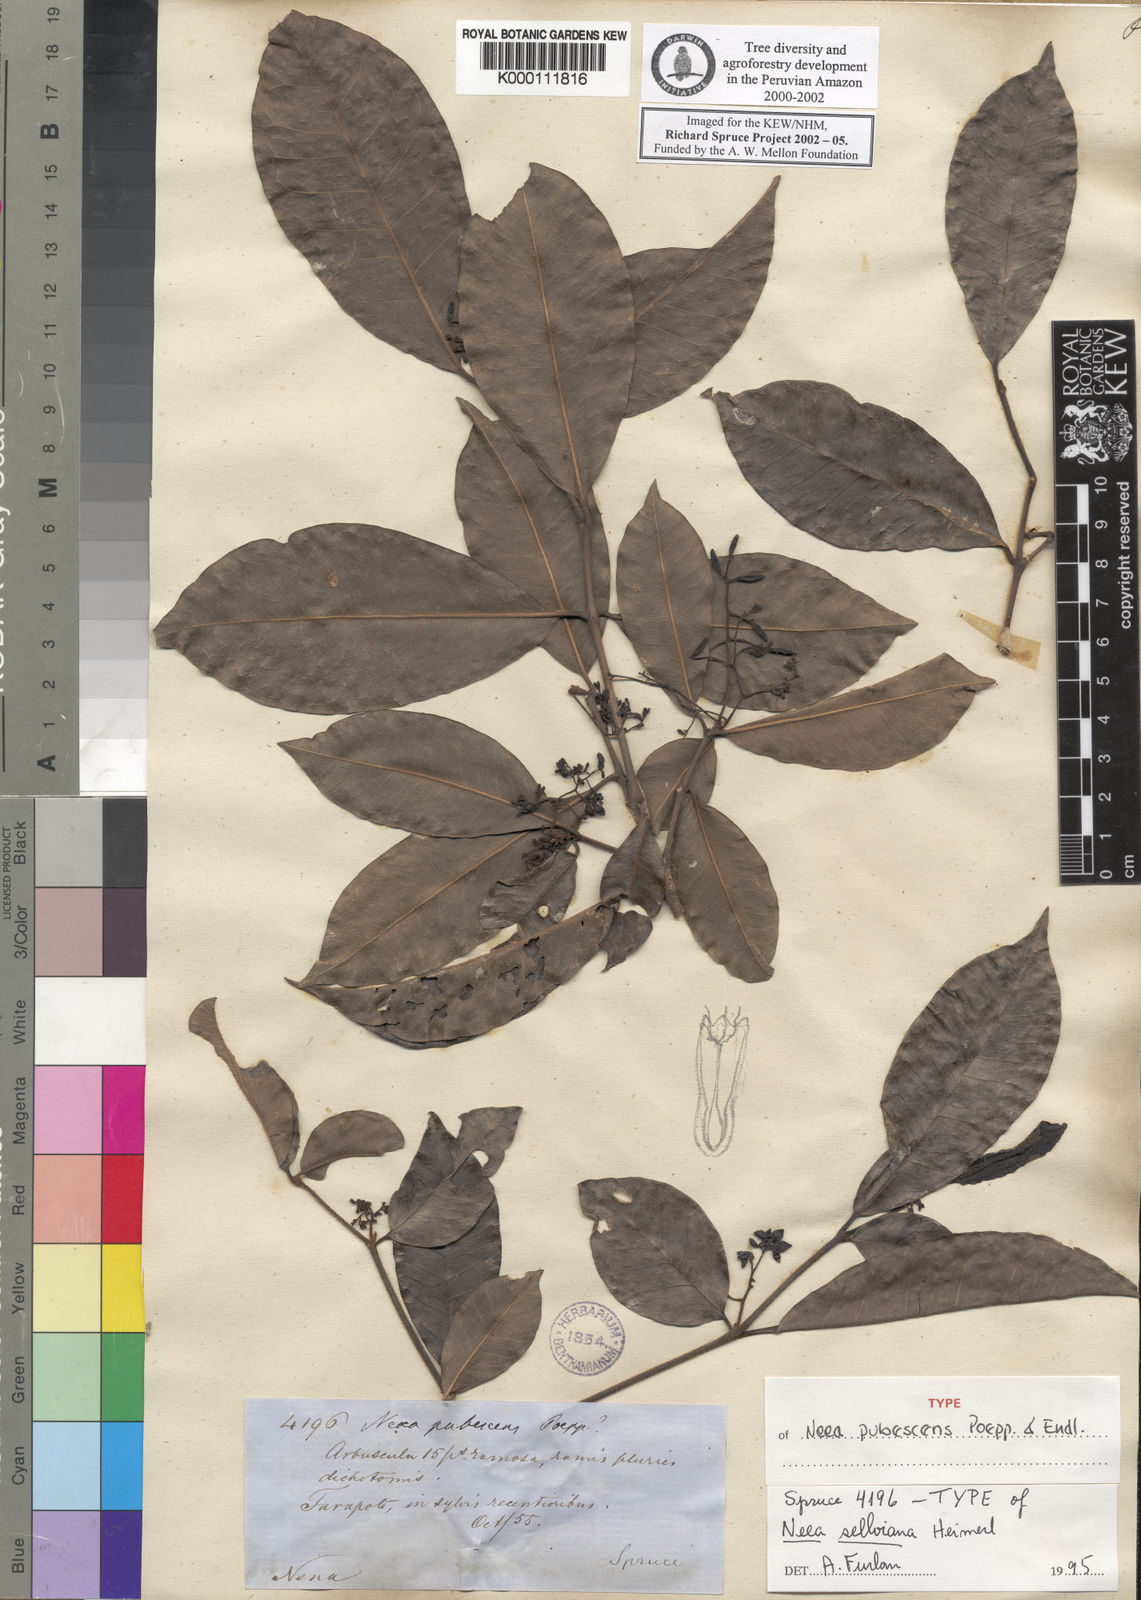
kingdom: Plantae
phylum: Tracheophyta
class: Magnoliopsida
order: Caryophyllales
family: Nyctaginaceae
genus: Neea
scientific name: Neea hermaphrodita
